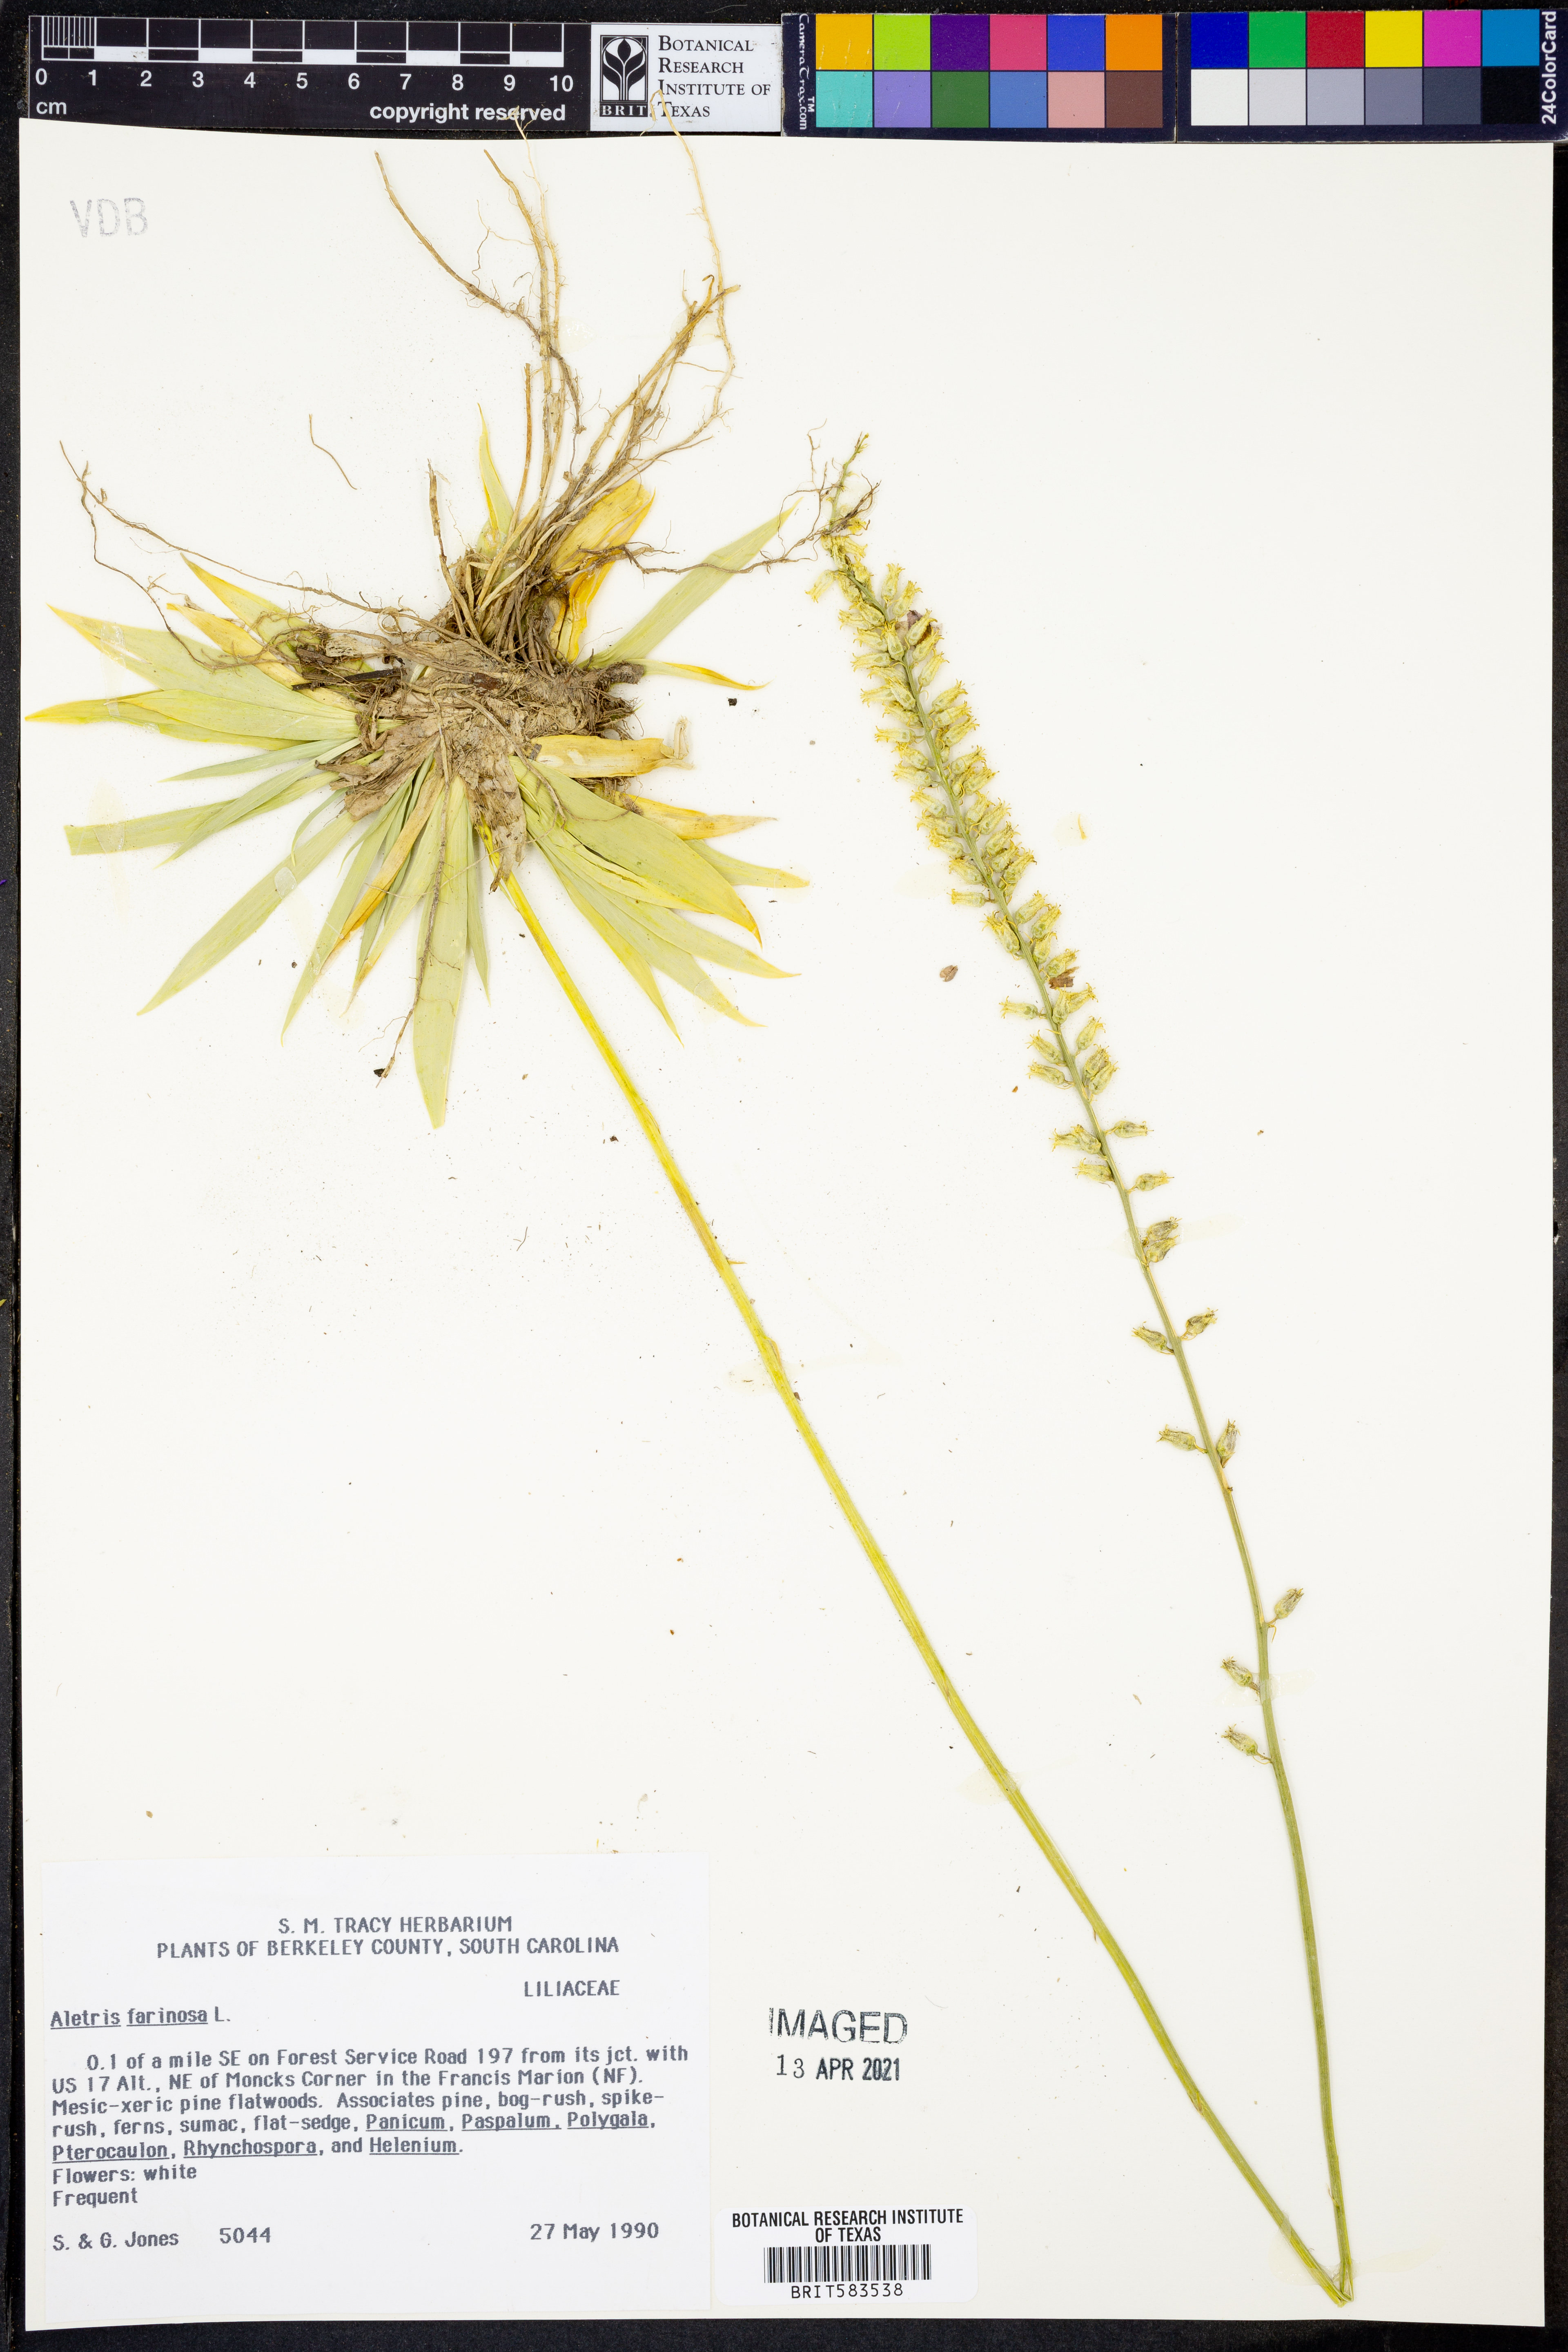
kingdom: Plantae
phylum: Tracheophyta
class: Liliopsida
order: Dioscoreales
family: Nartheciaceae
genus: Aletris
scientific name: Aletris farinosa
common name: Colicroot
